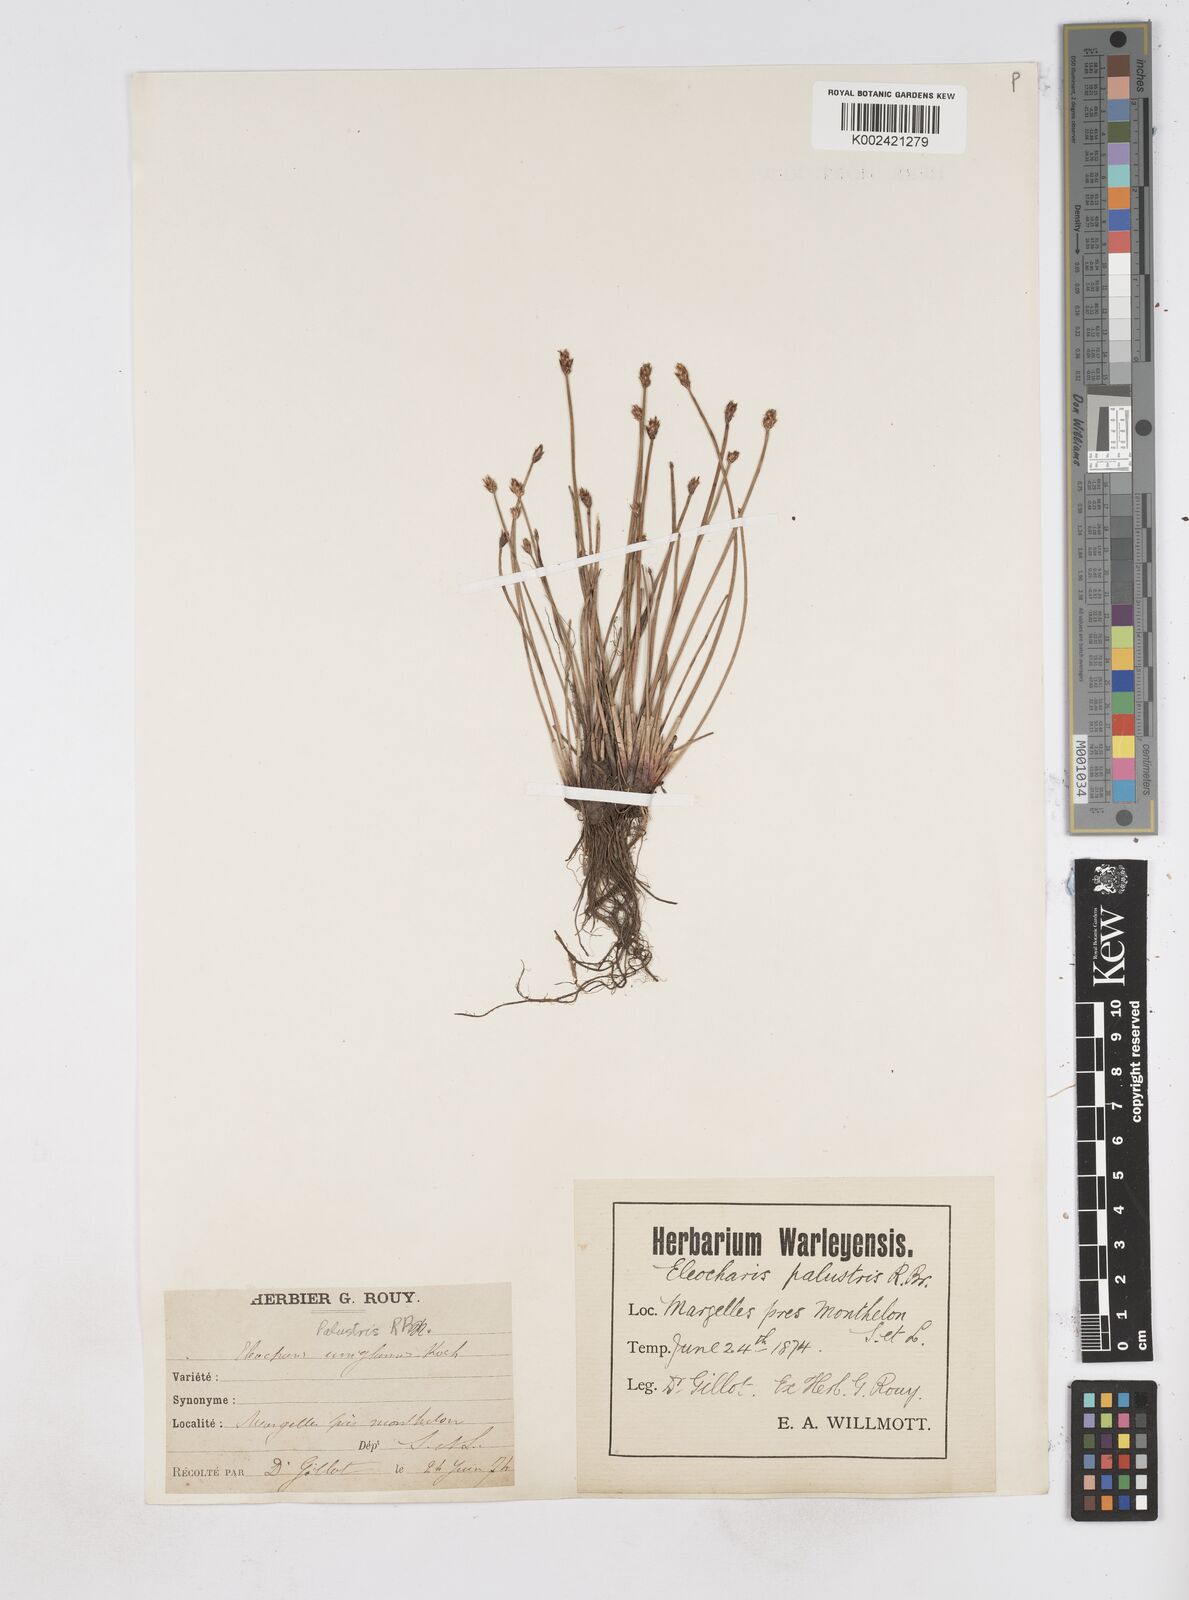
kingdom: Plantae
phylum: Tracheophyta
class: Liliopsida
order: Poales
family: Cyperaceae
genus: Eleocharis
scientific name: Eleocharis palustris
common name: Common spike-rush
